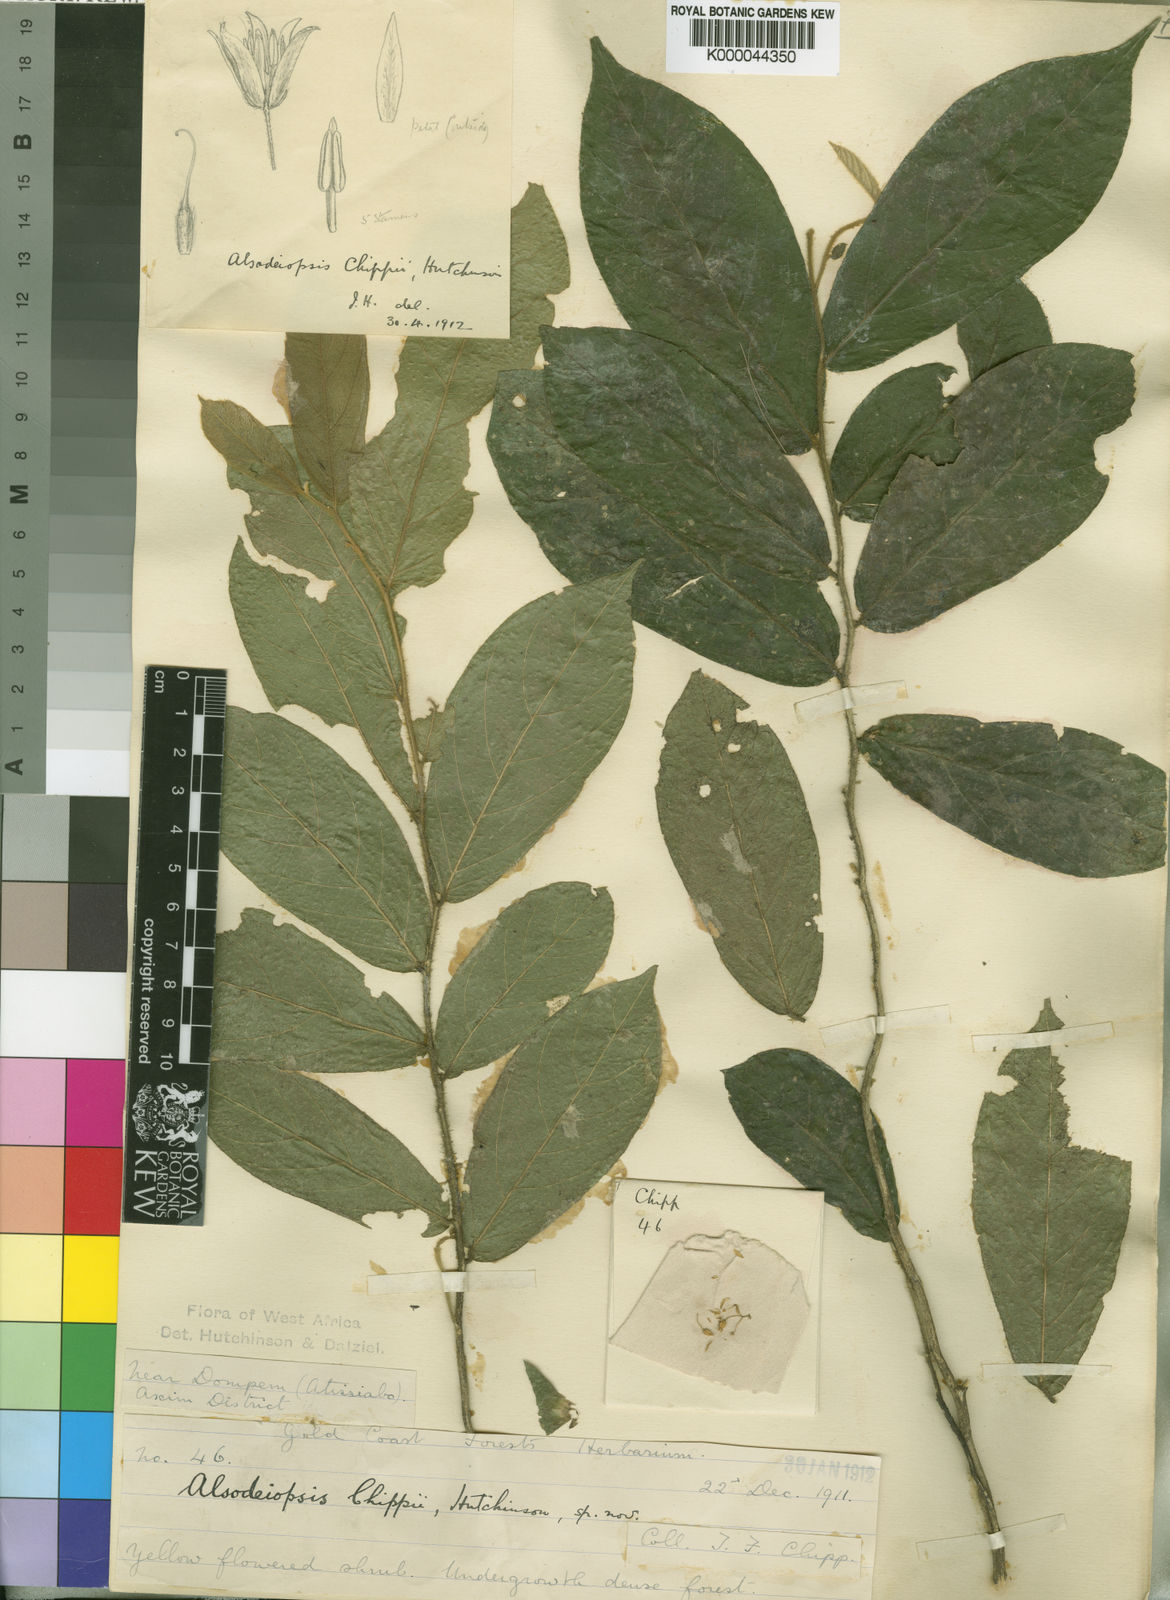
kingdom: Plantae
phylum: Tracheophyta
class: Magnoliopsida
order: Icacinales
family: Icacinaceae
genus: Alsodeiopsis
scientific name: Alsodeiopsis chippii
